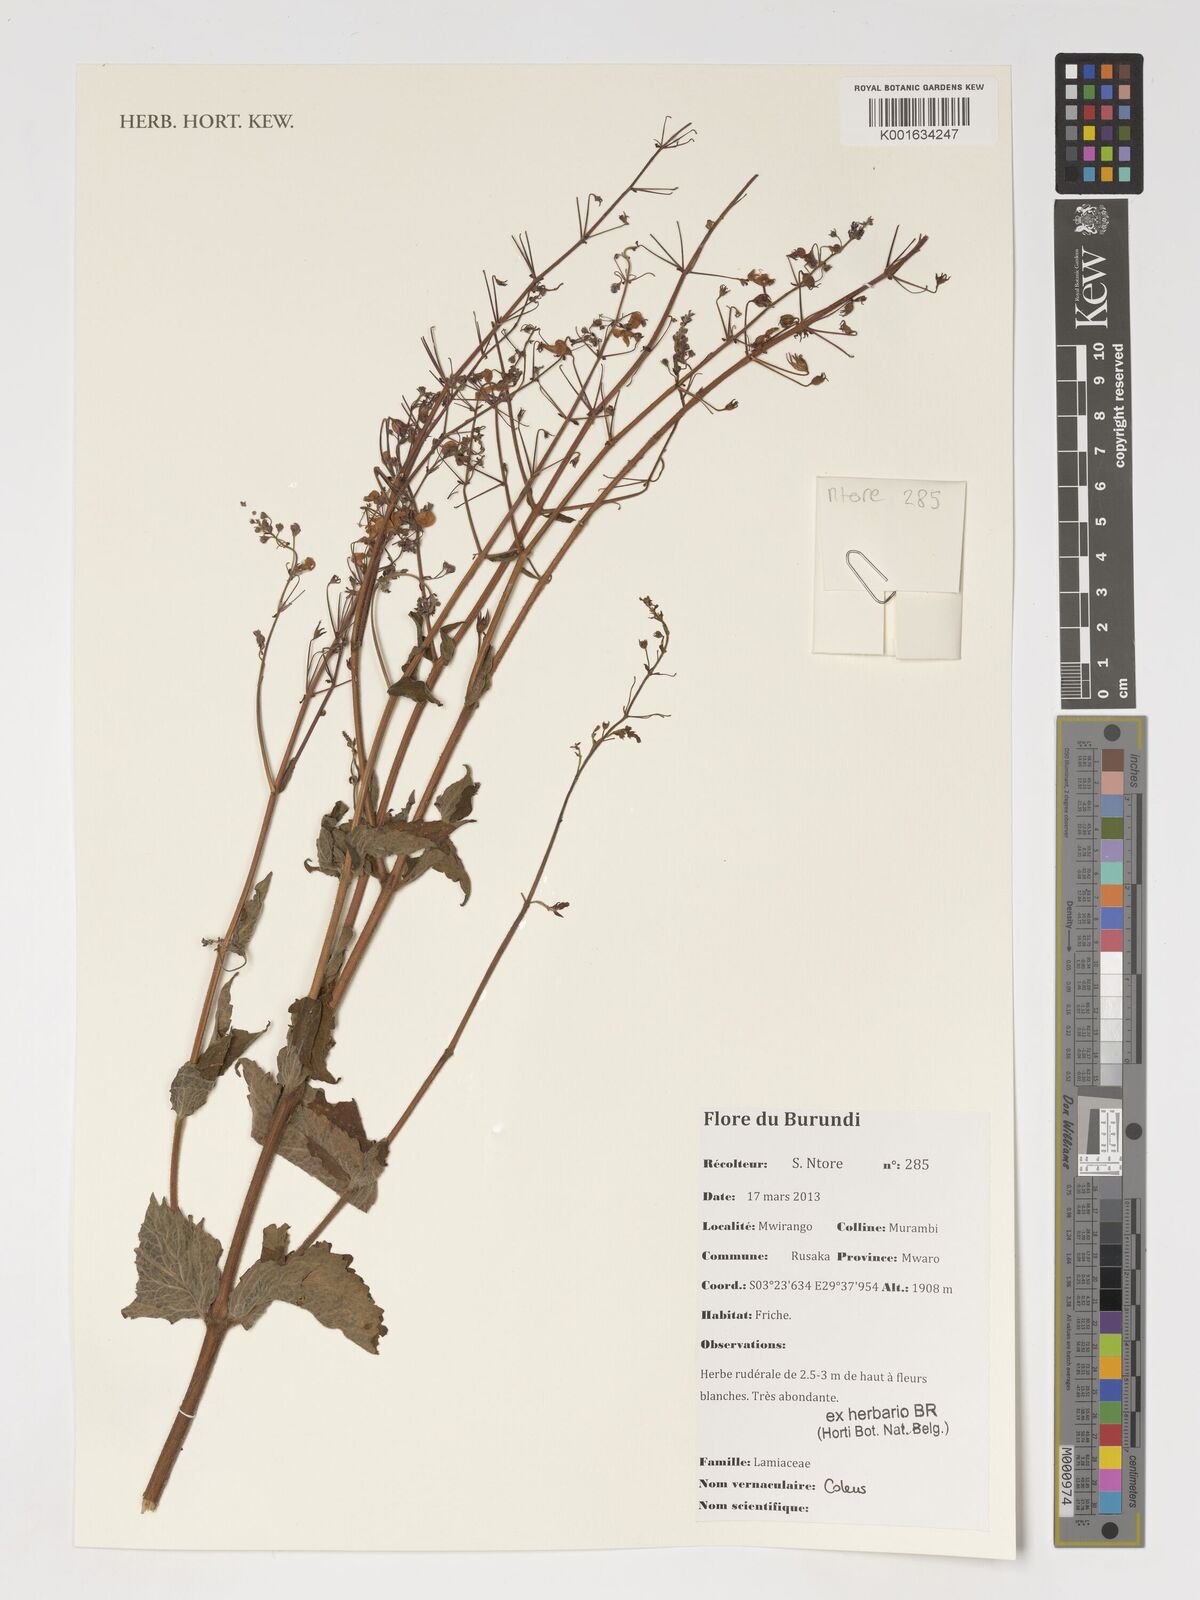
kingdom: Plantae
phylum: Tracheophyta
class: Magnoliopsida
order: Lamiales
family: Lamiaceae
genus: Coleus
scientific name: Coleus
